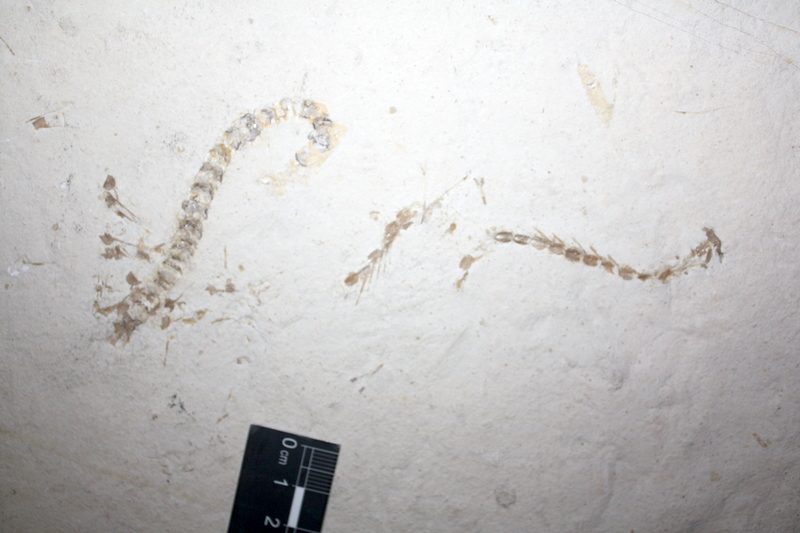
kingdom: Animalia
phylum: Chordata
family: Aspidorhynchidae
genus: Aspidorhynchus
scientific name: Aspidorhynchus acutirostris
